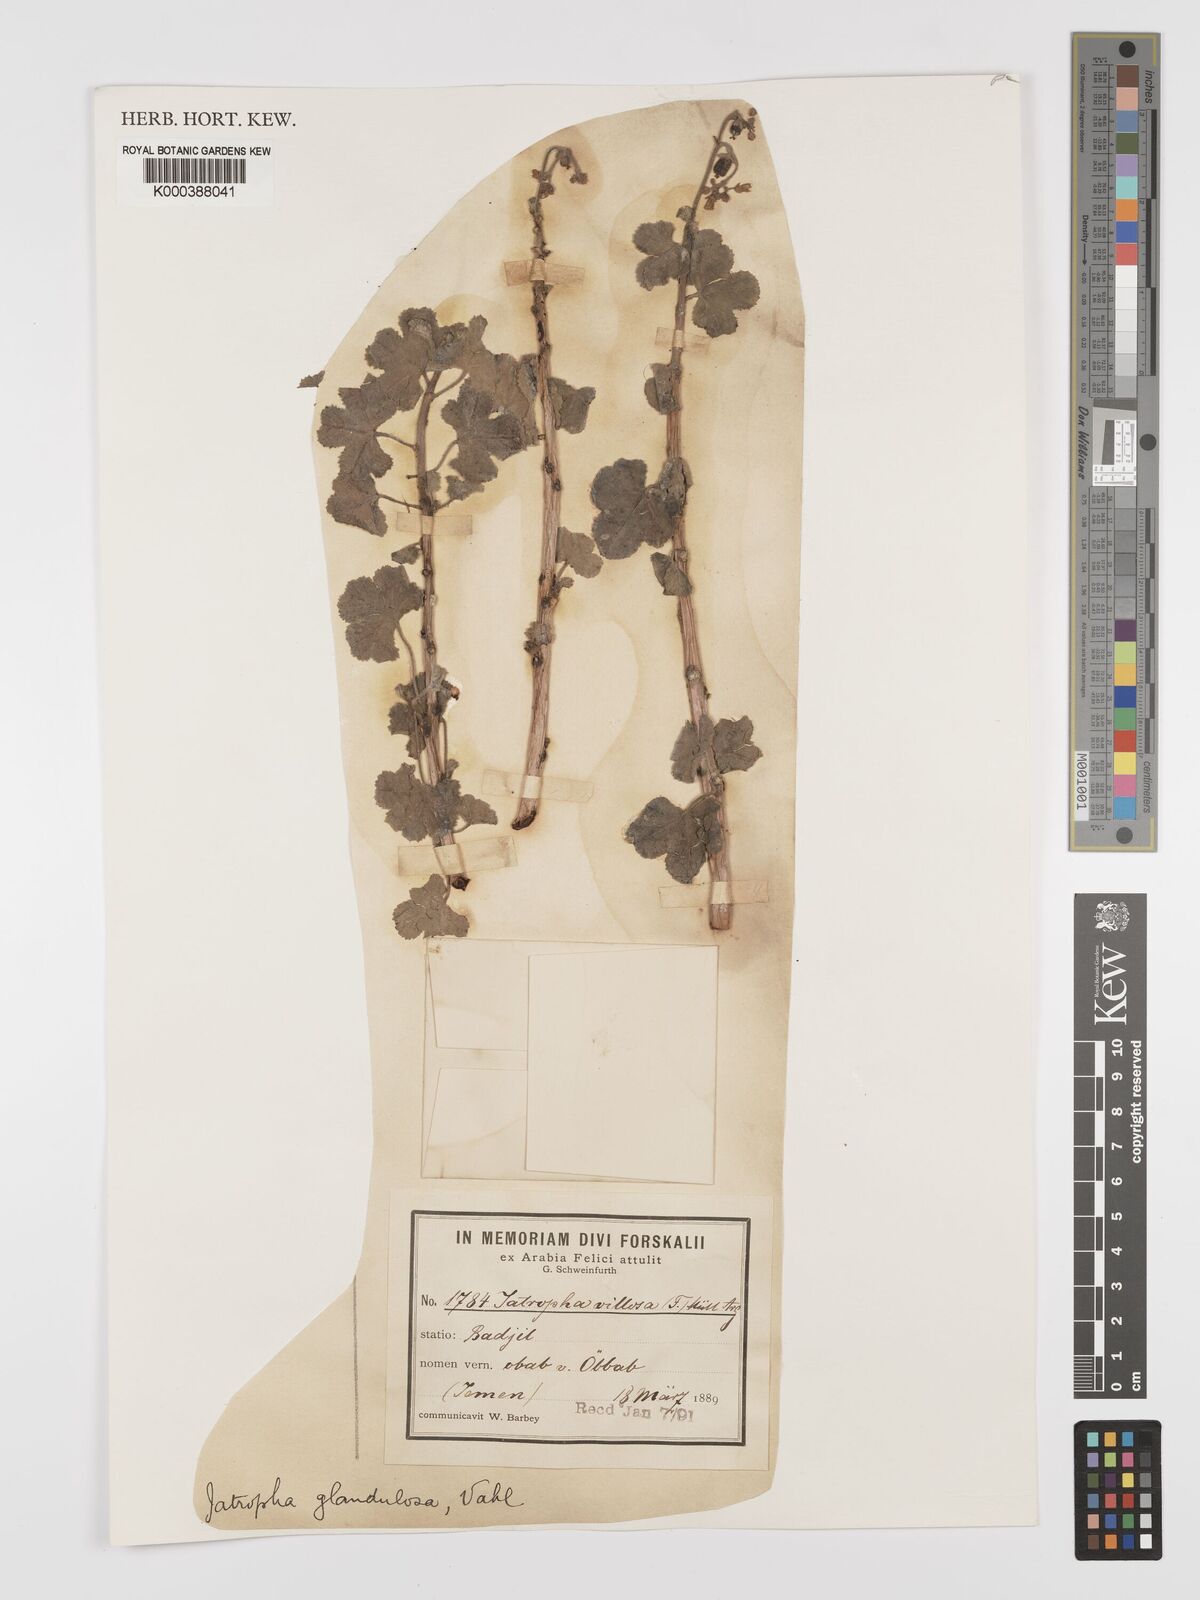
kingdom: Plantae
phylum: Tracheophyta
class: Magnoliopsida
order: Malpighiales
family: Euphorbiaceae
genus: Jatropha
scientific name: Jatropha pelargoniifolia
